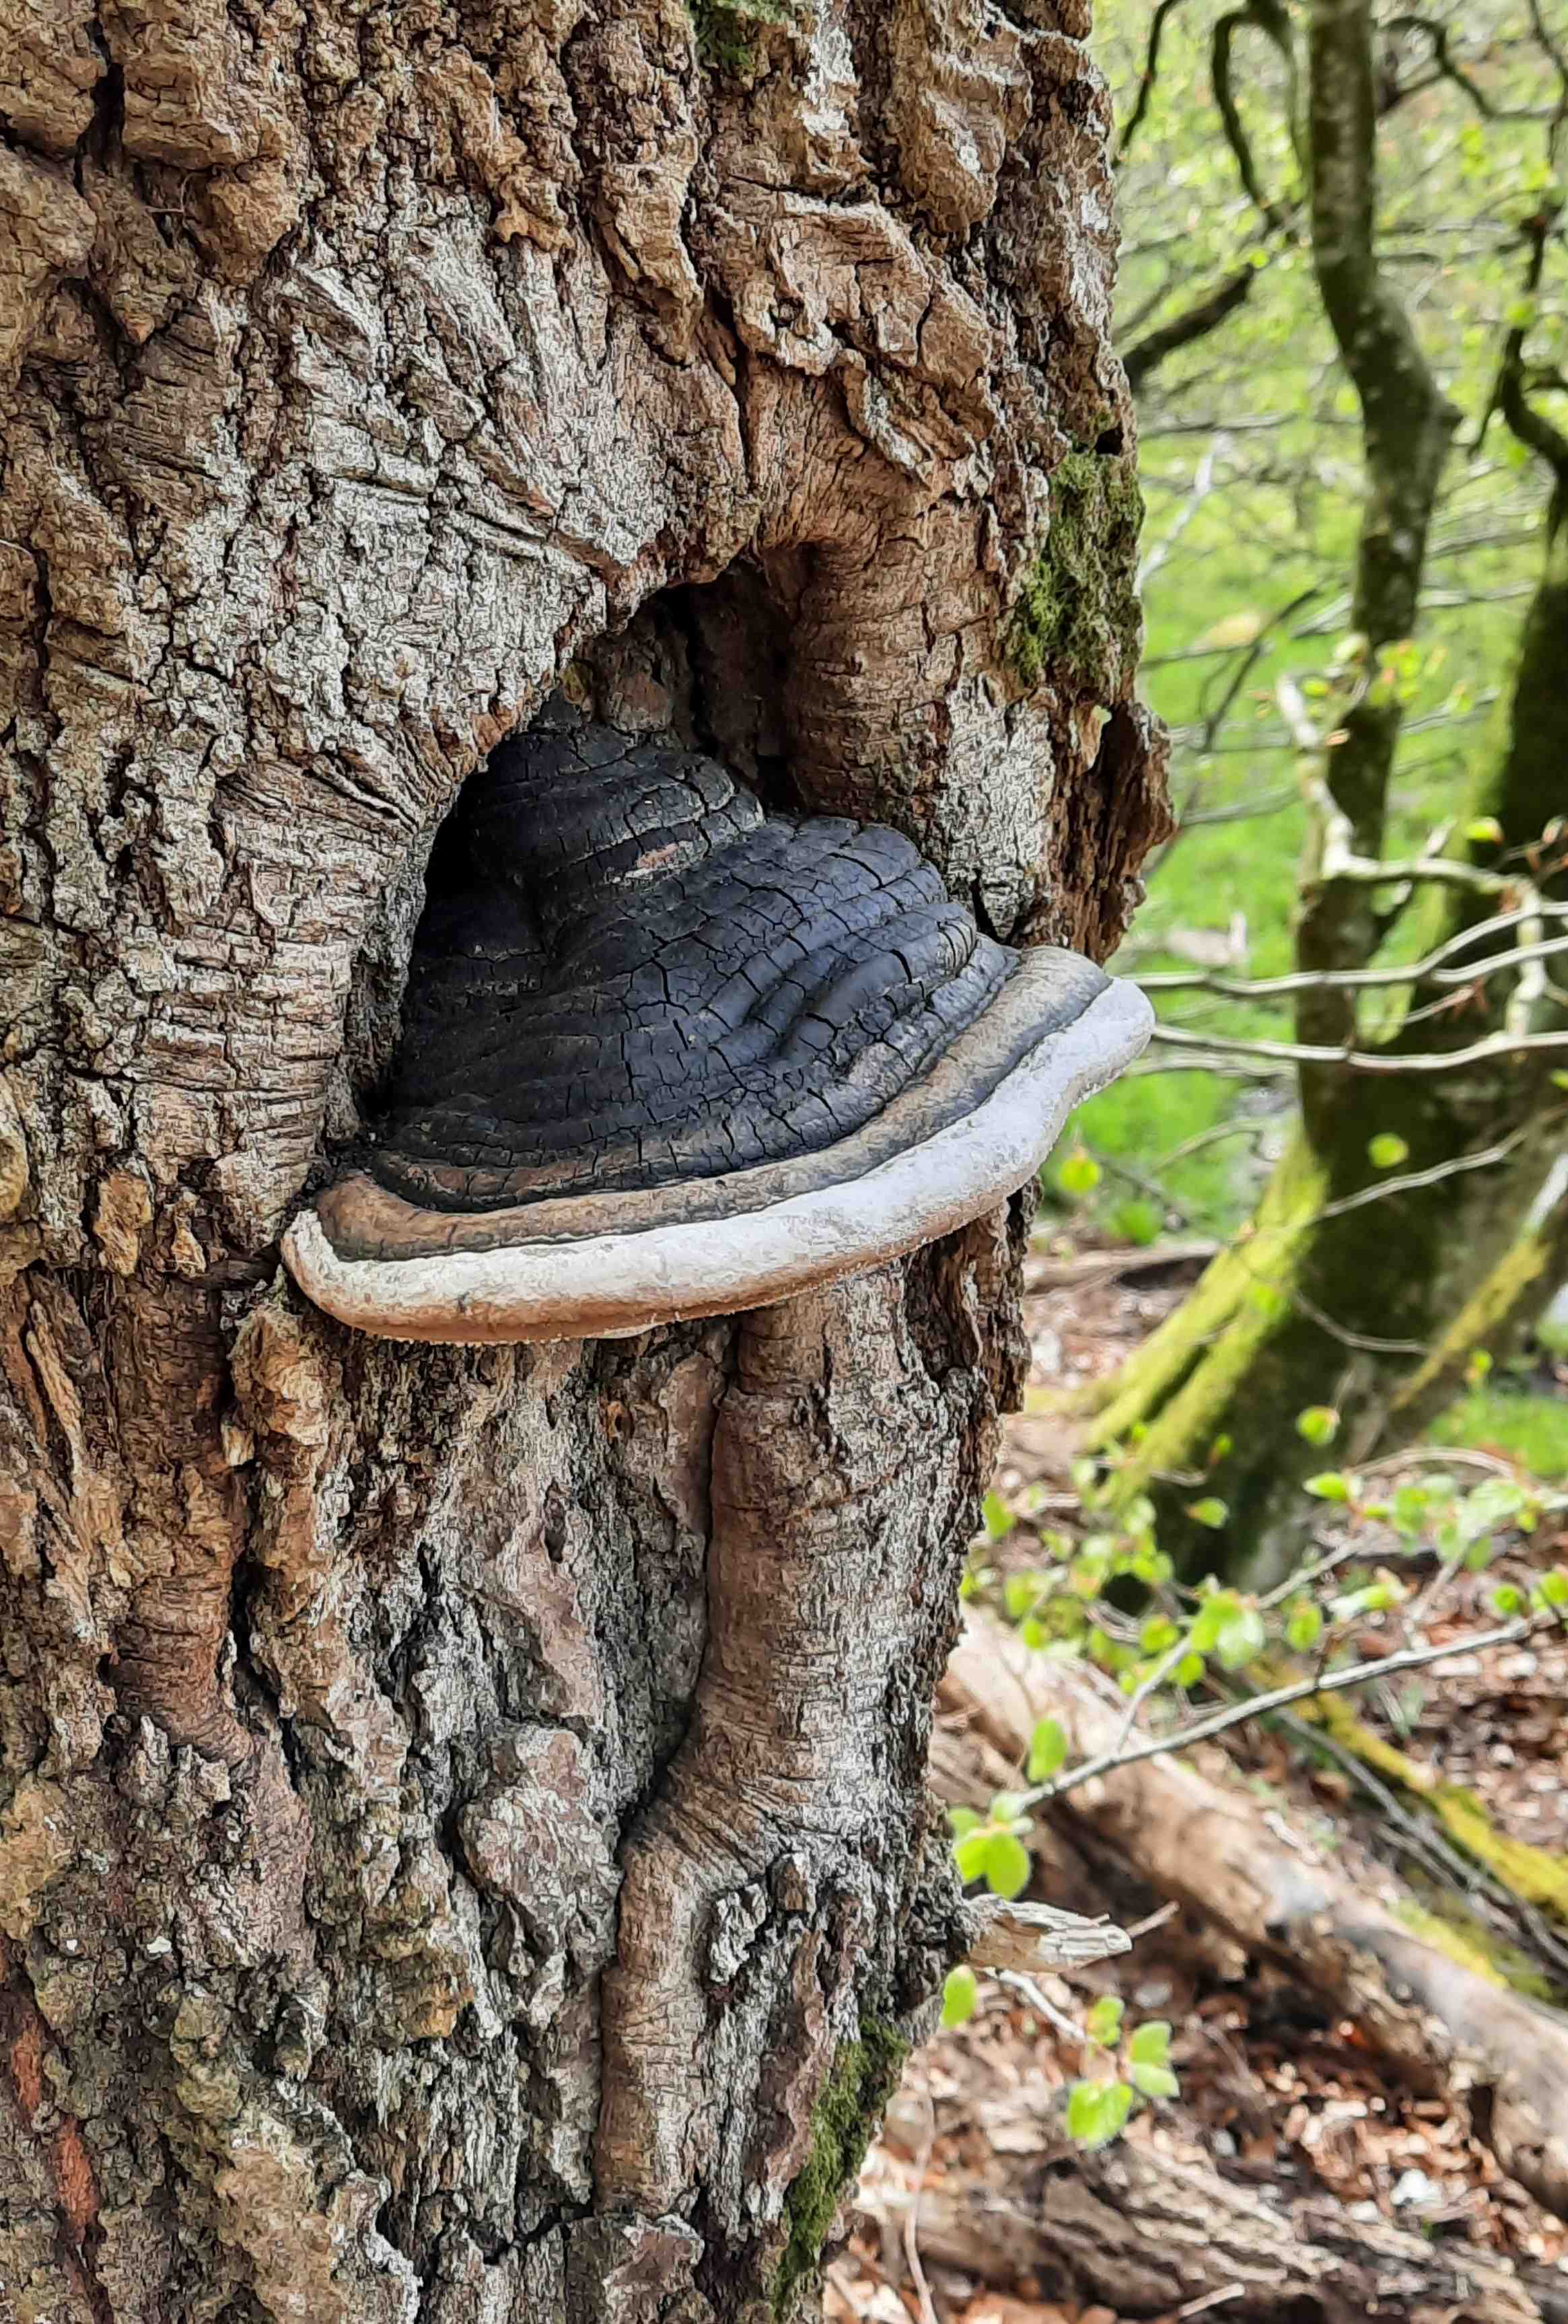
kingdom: Fungi
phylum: Basidiomycota
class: Agaricomycetes
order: Hymenochaetales
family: Hymenochaetaceae
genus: Phellinus
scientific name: Phellinus populicola
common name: poppel-ildporesvamp
